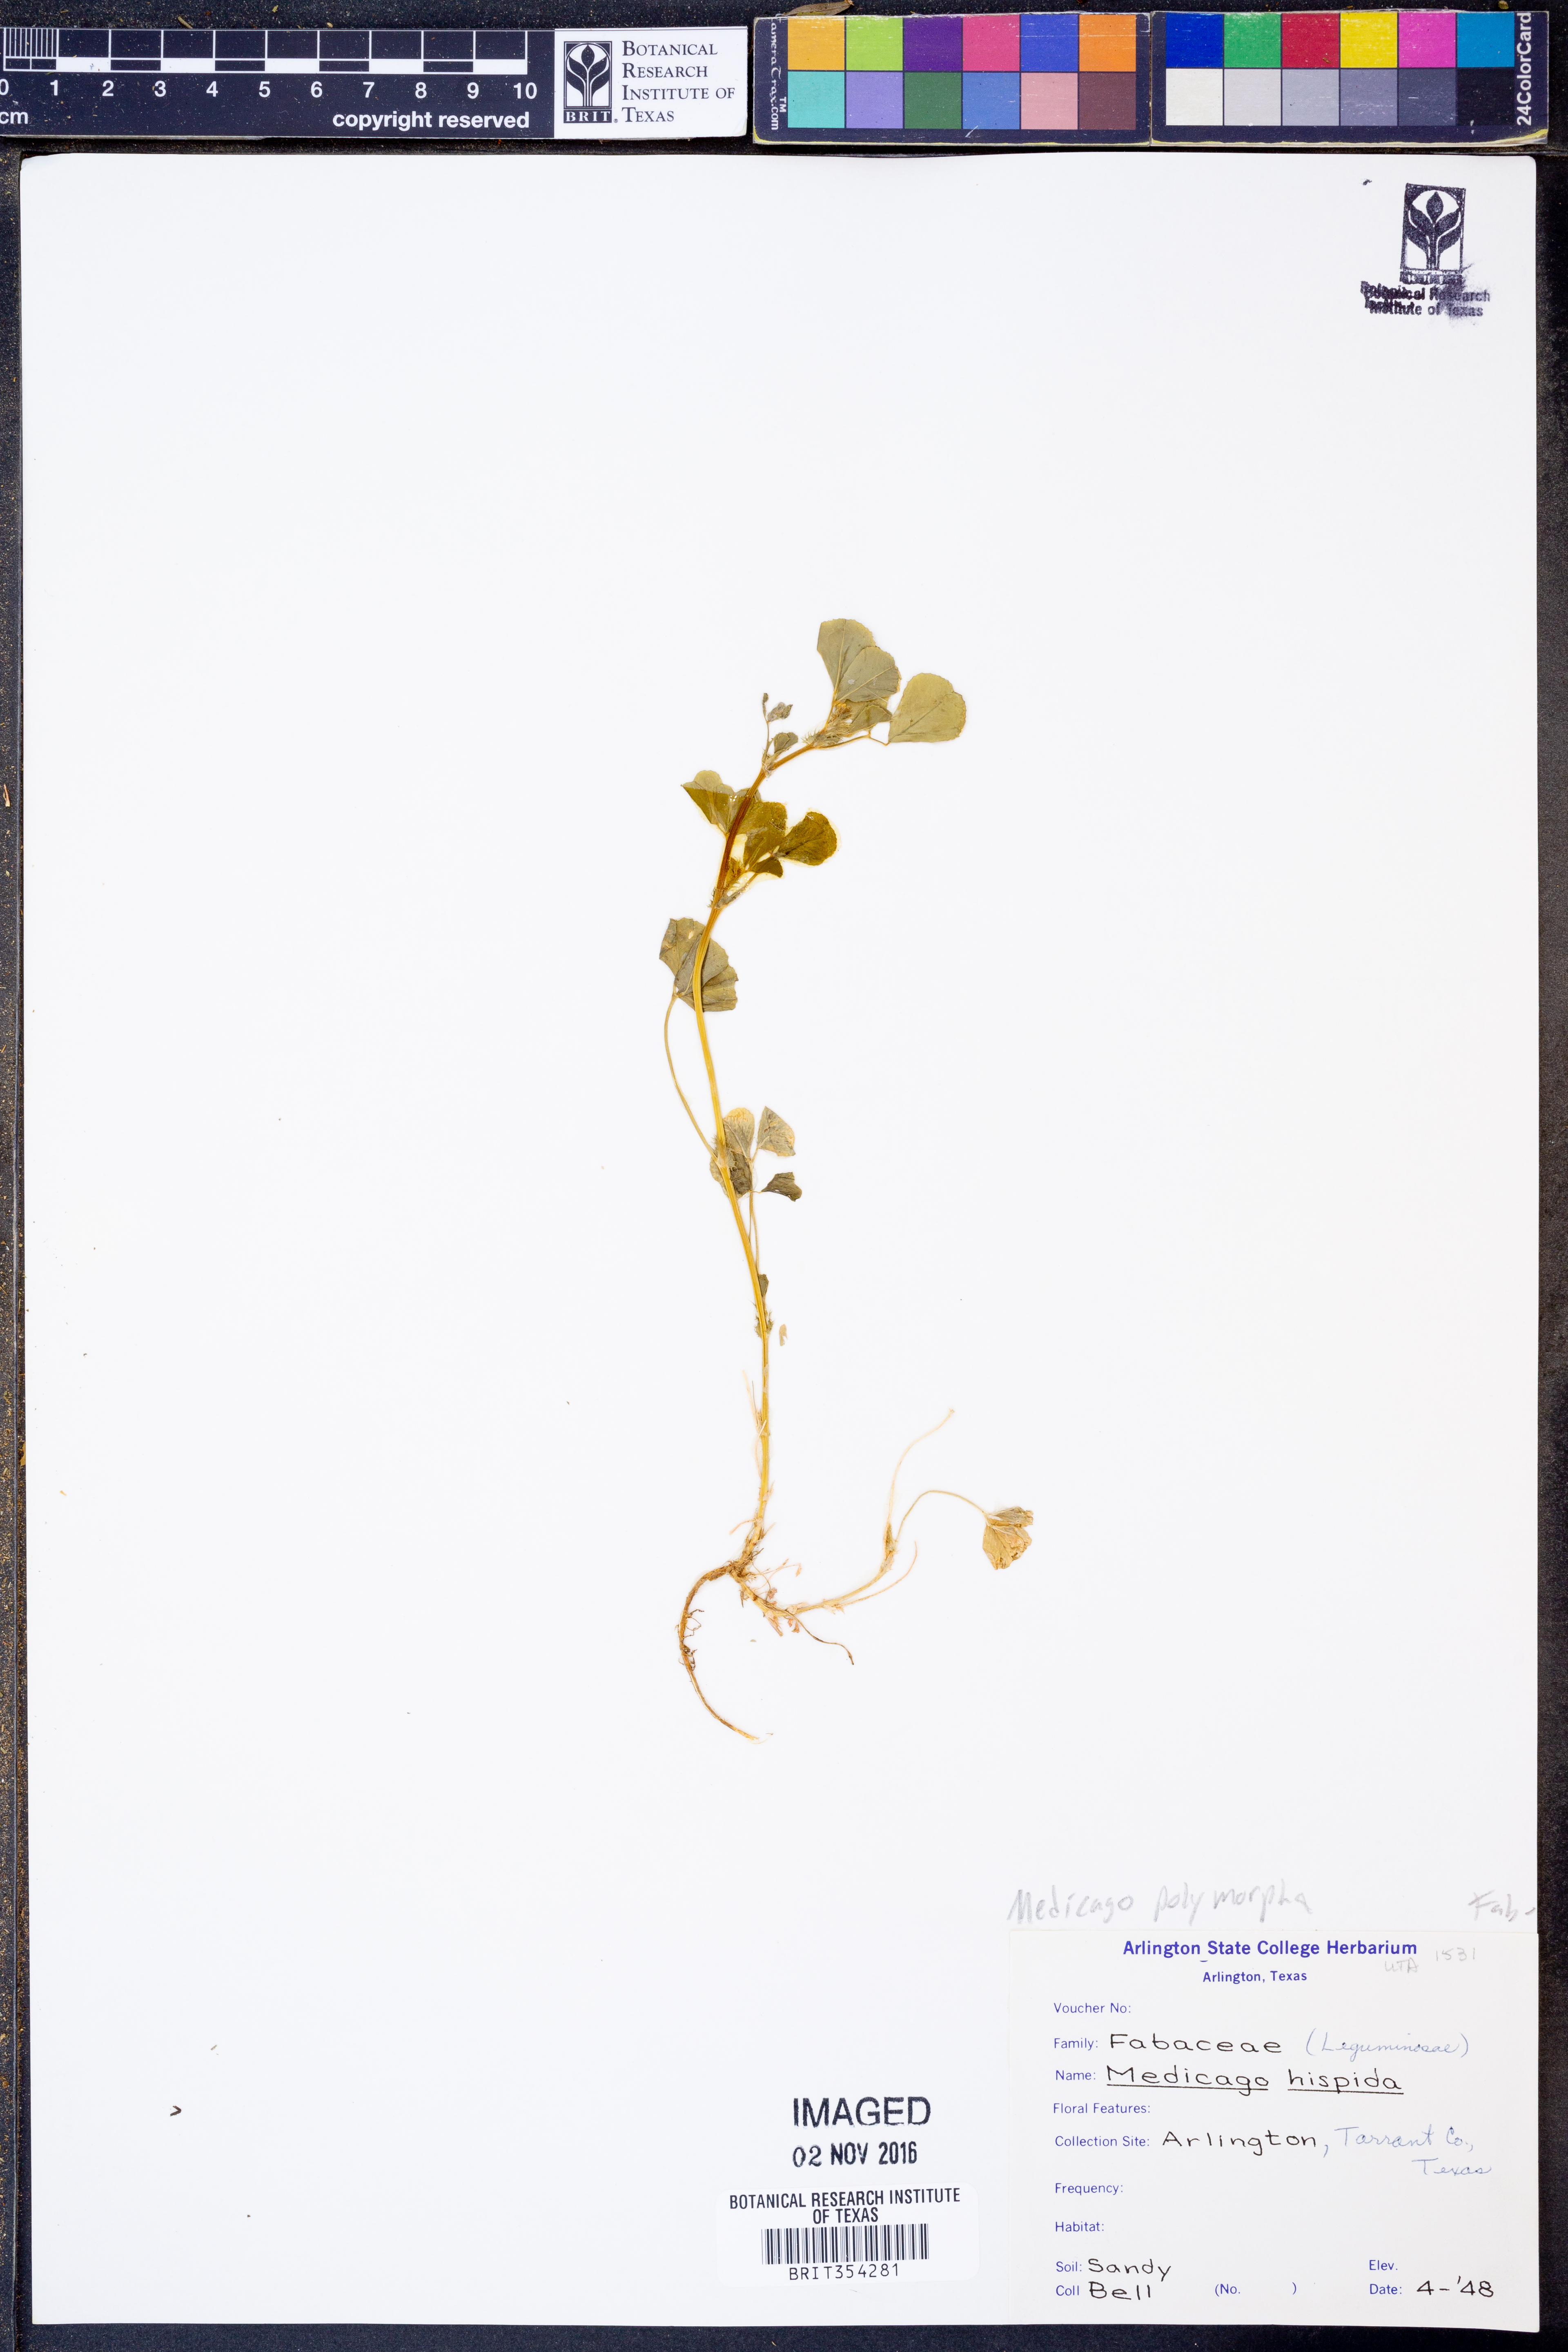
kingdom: Plantae
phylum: Tracheophyta
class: Magnoliopsida
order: Fabales
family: Fabaceae
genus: Medicago
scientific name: Medicago polymorpha
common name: Burclover
